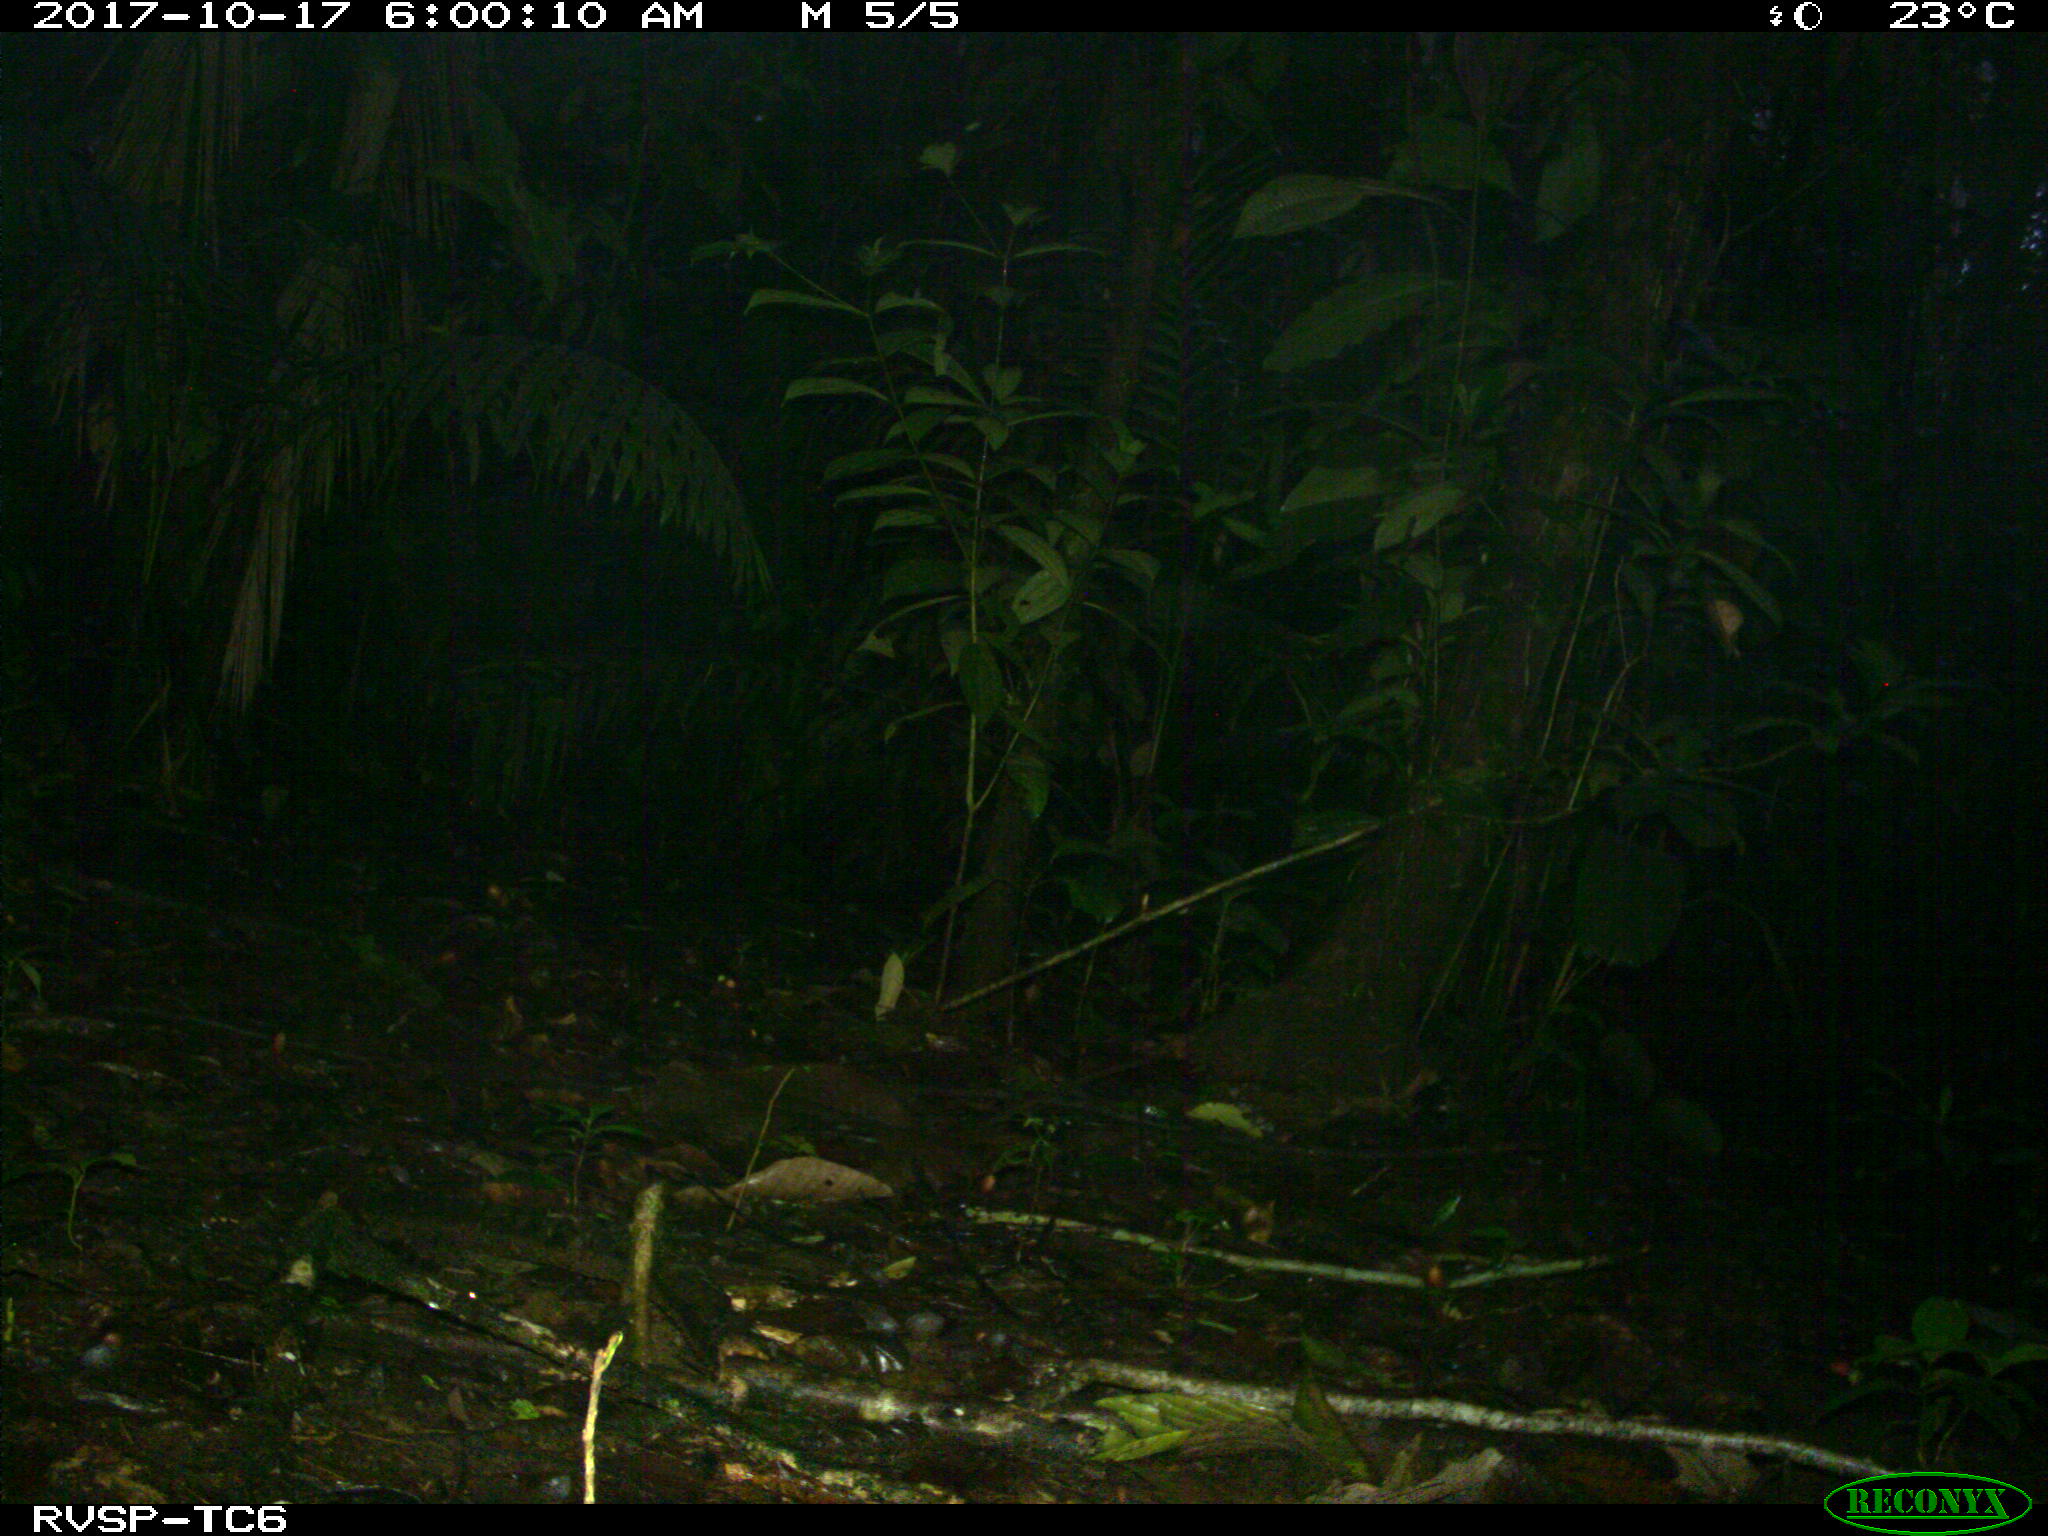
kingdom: Animalia
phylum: Chordata
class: Mammalia
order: Rodentia
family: Dasyproctidae
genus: Dasyprocta
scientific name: Dasyprocta punctata
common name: Central american agouti
